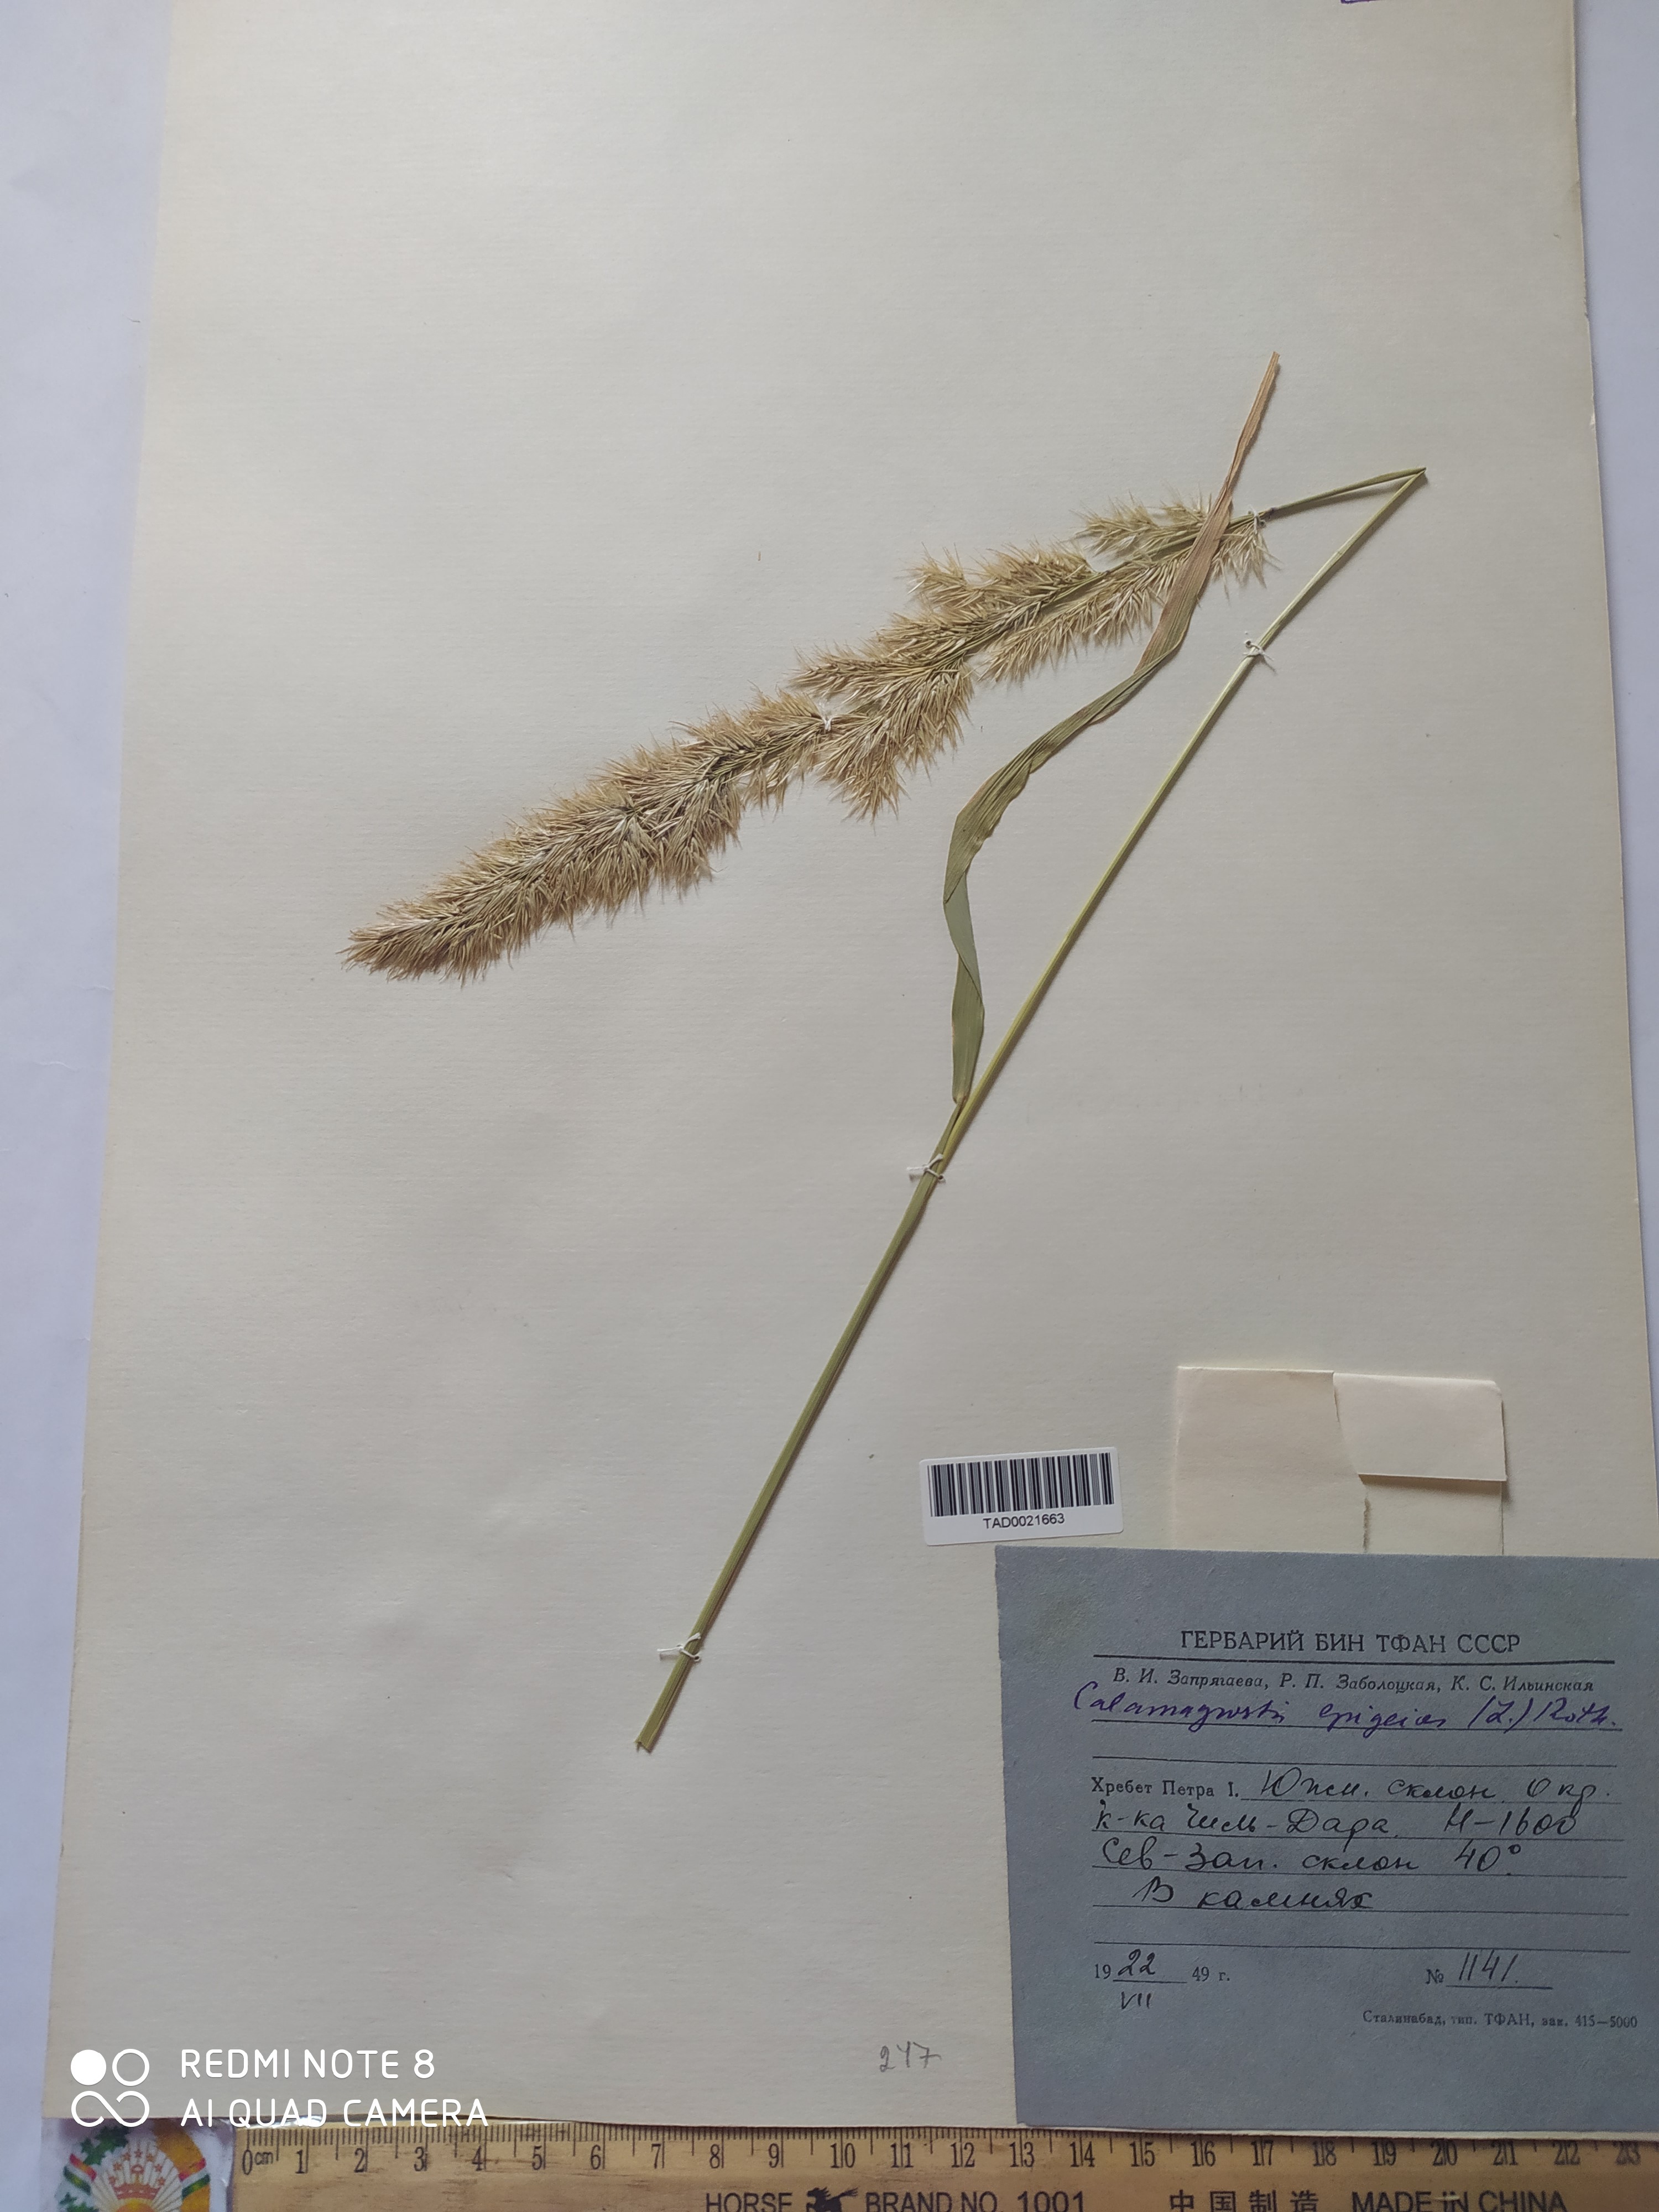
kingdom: Plantae
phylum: Tracheophyta
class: Liliopsida
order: Poales
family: Poaceae
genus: Calamagrostis
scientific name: Calamagrostis epigejos
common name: Wood small-reed
